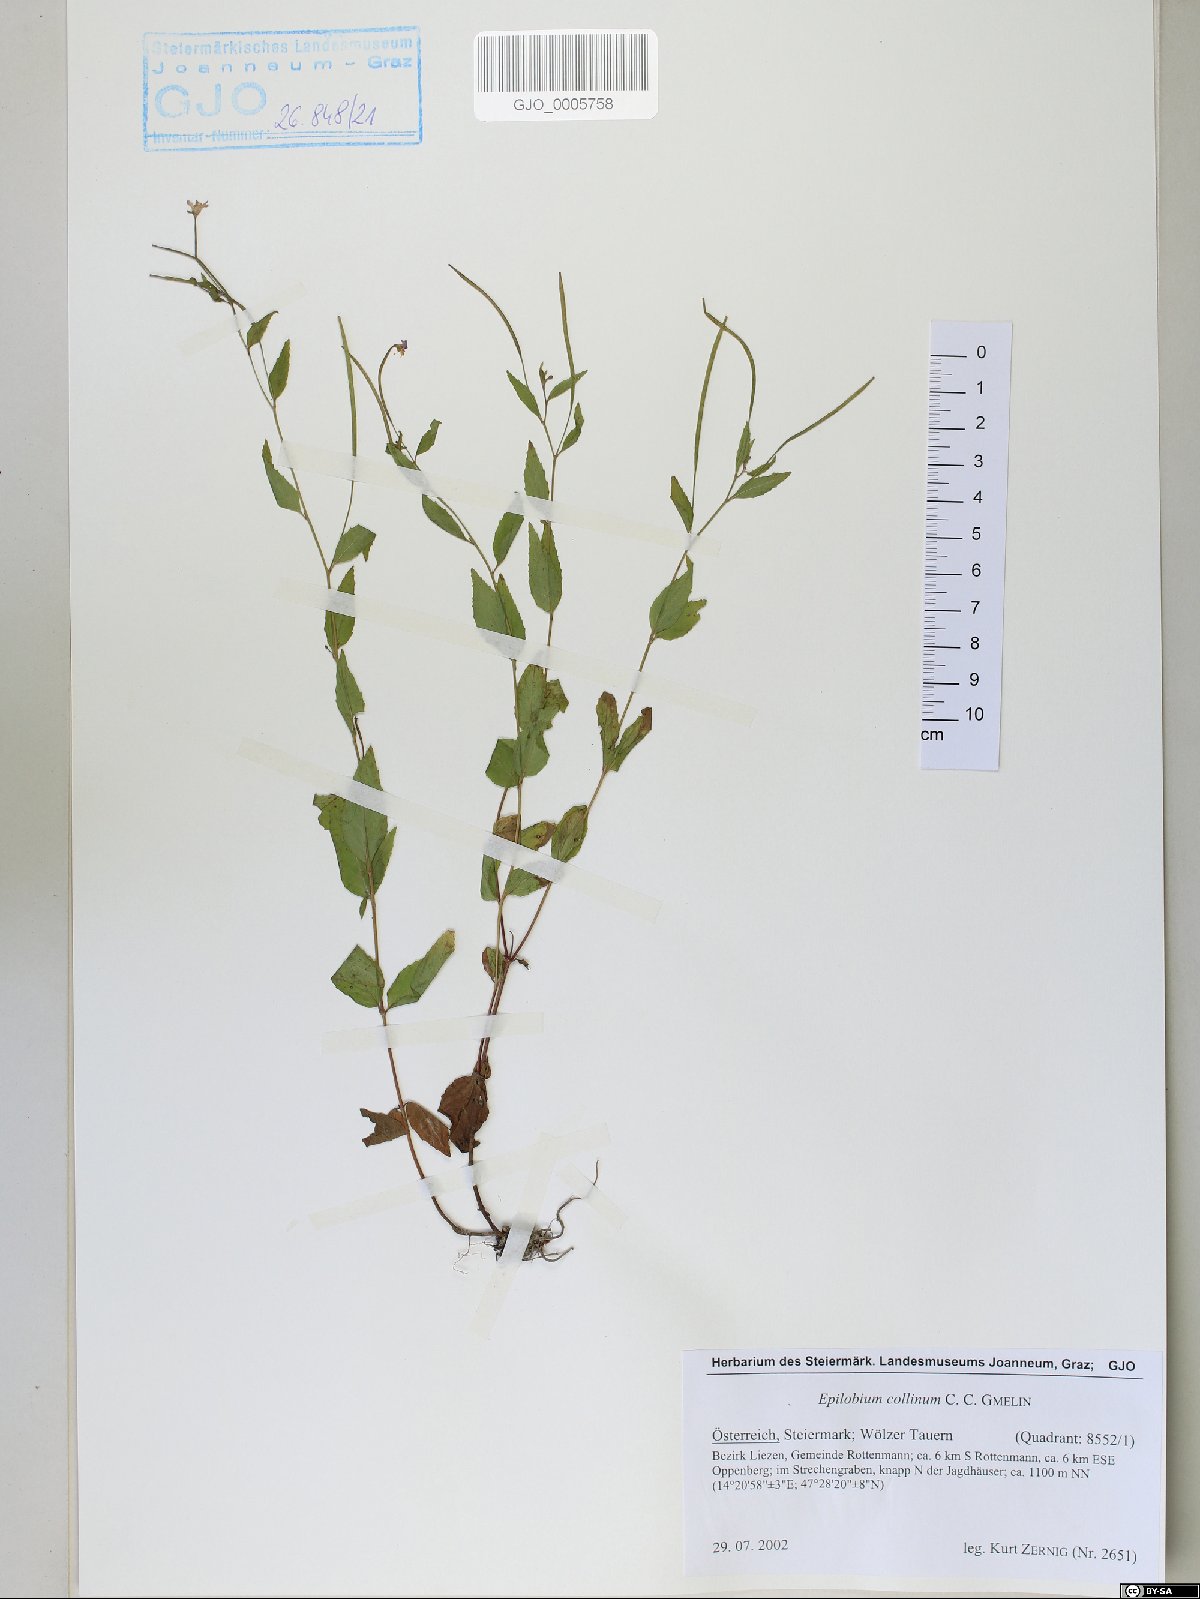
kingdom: Plantae
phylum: Tracheophyta
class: Magnoliopsida
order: Myrtales
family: Onagraceae
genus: Epilobium
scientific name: Epilobium collinum
